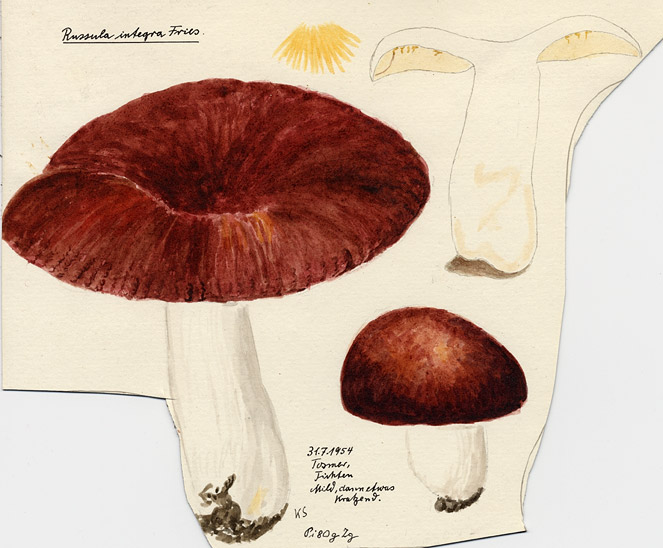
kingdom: Fungi
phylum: Basidiomycota
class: Agaricomycetes
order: Russulales
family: Russulaceae
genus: Russula
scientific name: Russula integra
